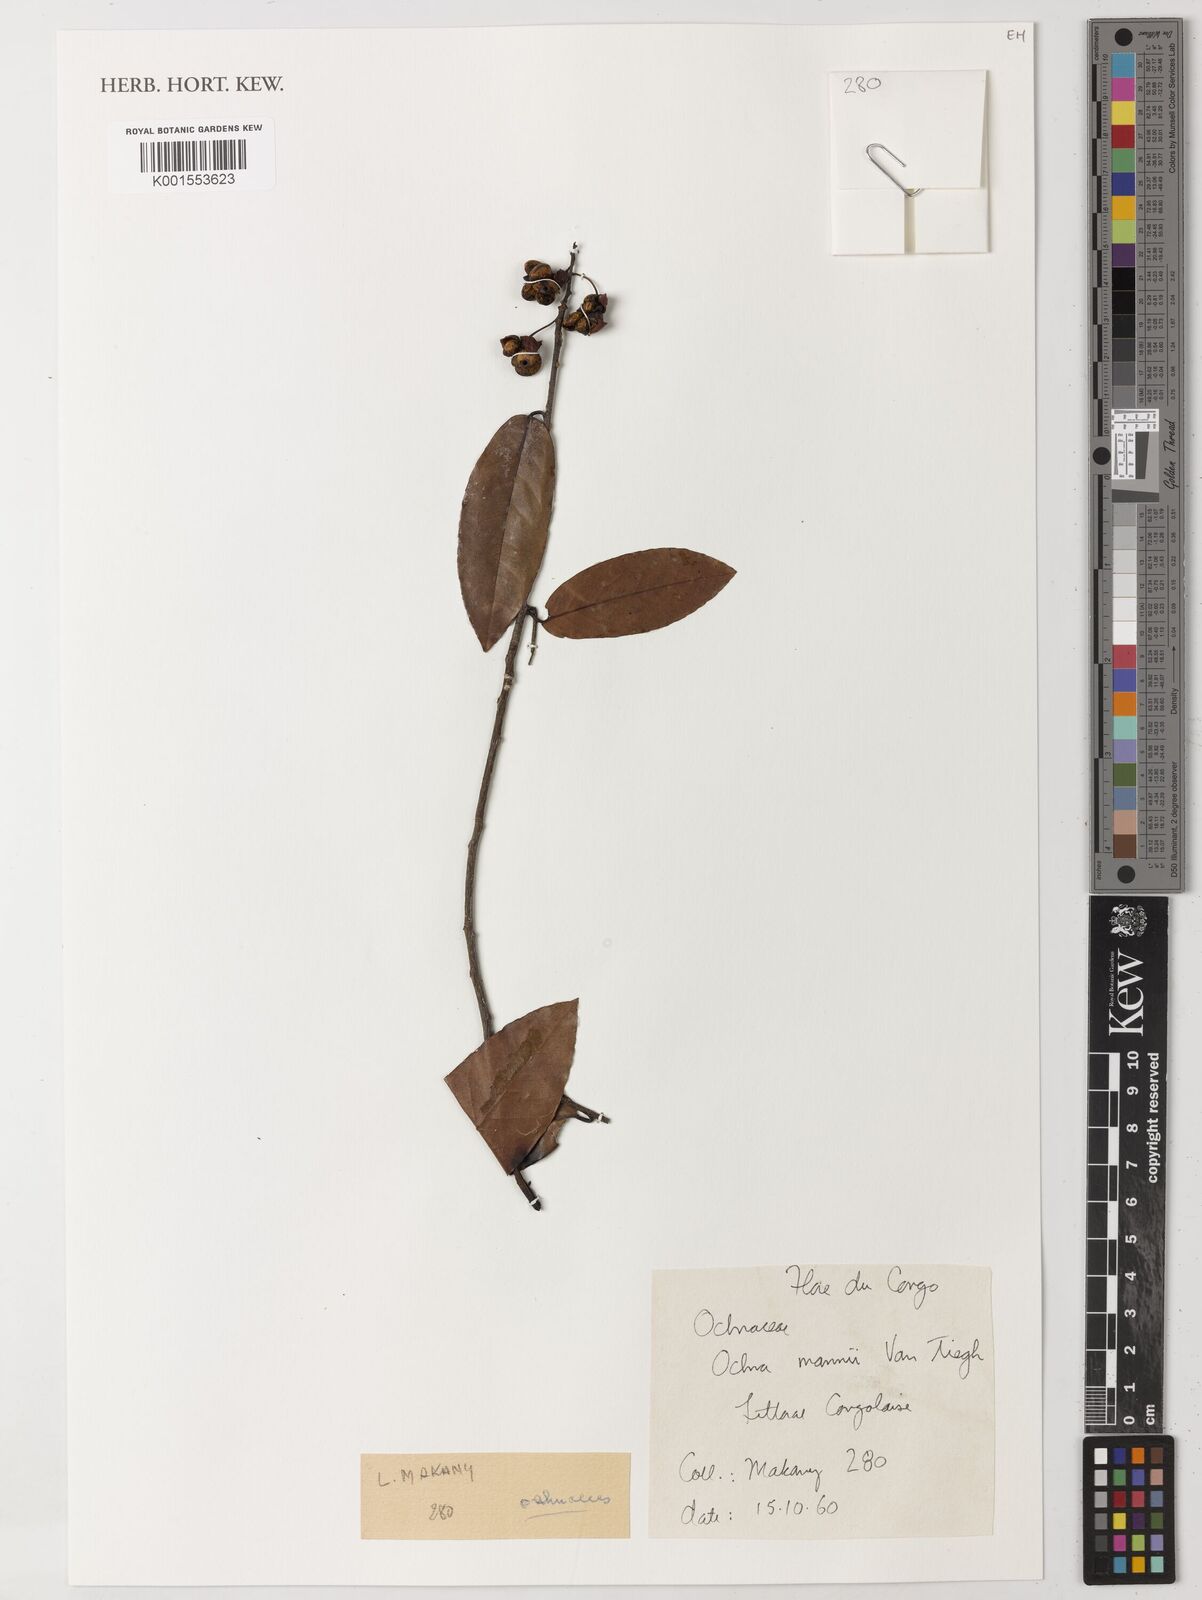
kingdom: Plantae
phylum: Tracheophyta
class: Magnoliopsida
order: Malpighiales
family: Ochnaceae
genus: Ochna
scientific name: Ochna multiflora
